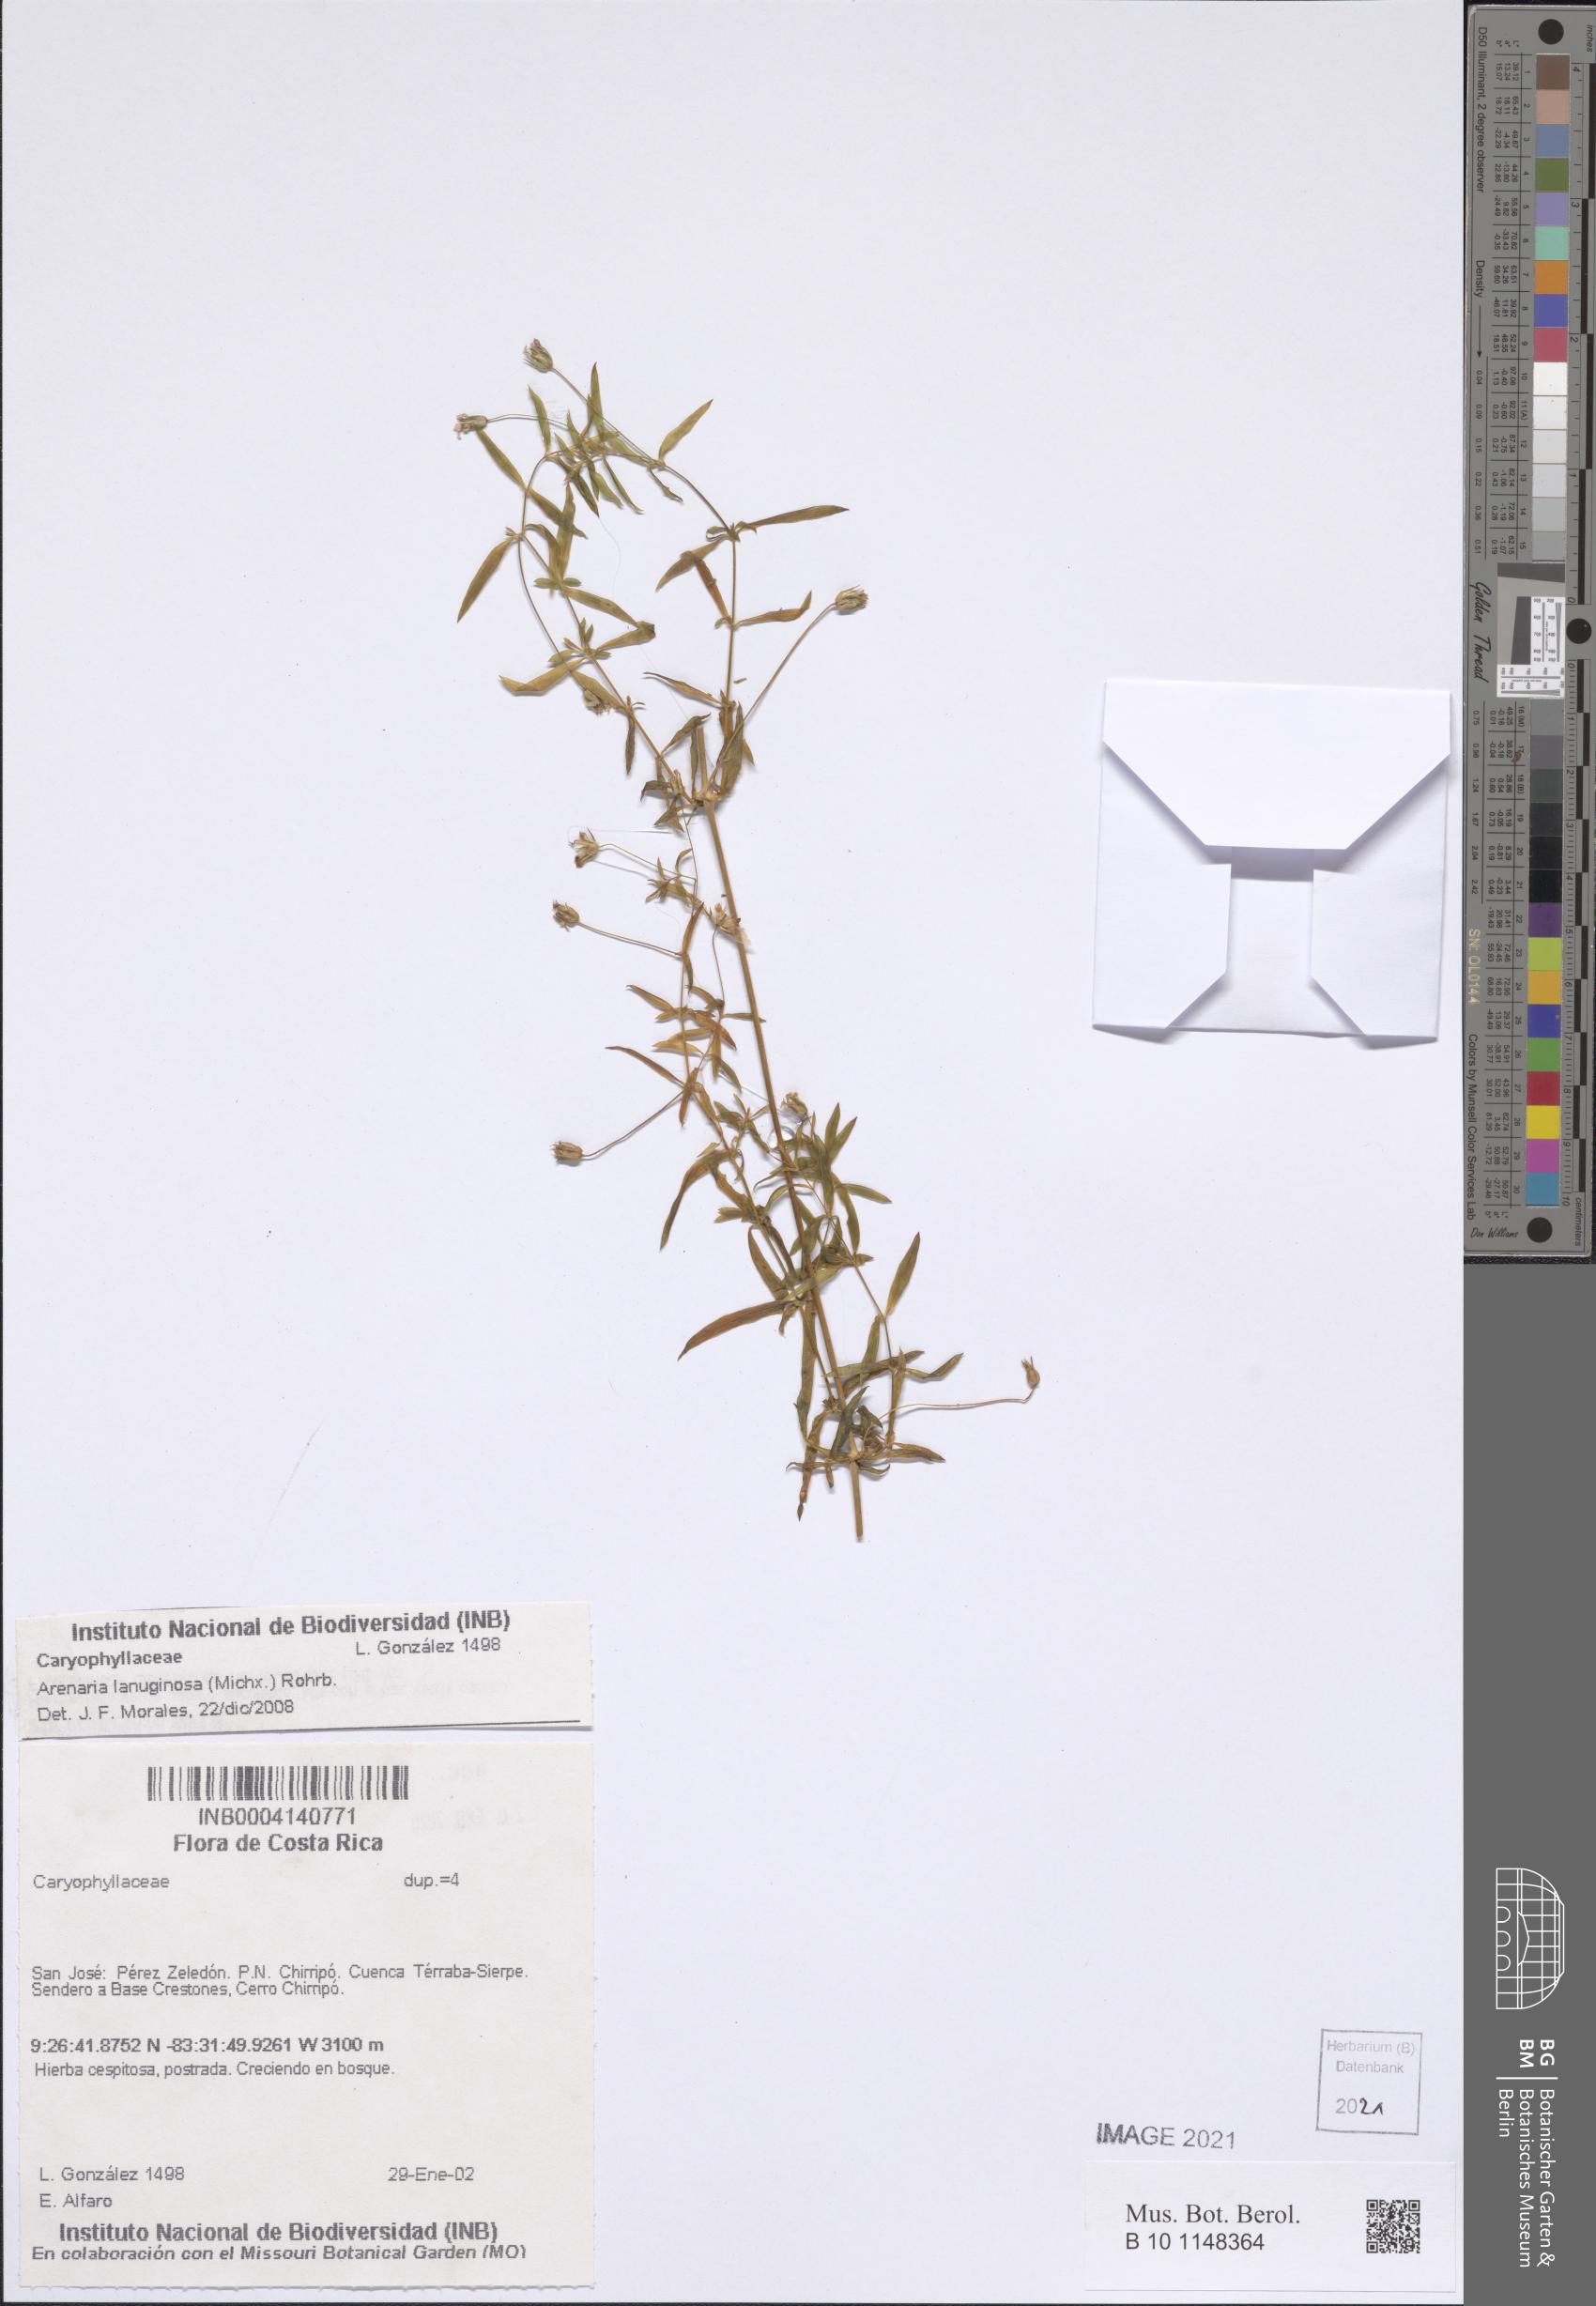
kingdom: Plantae
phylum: Tracheophyta
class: Magnoliopsida
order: Caryophyllales
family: Caryophyllaceae
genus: Arenaria
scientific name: Arenaria lanuginosa
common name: Spread sandwort
